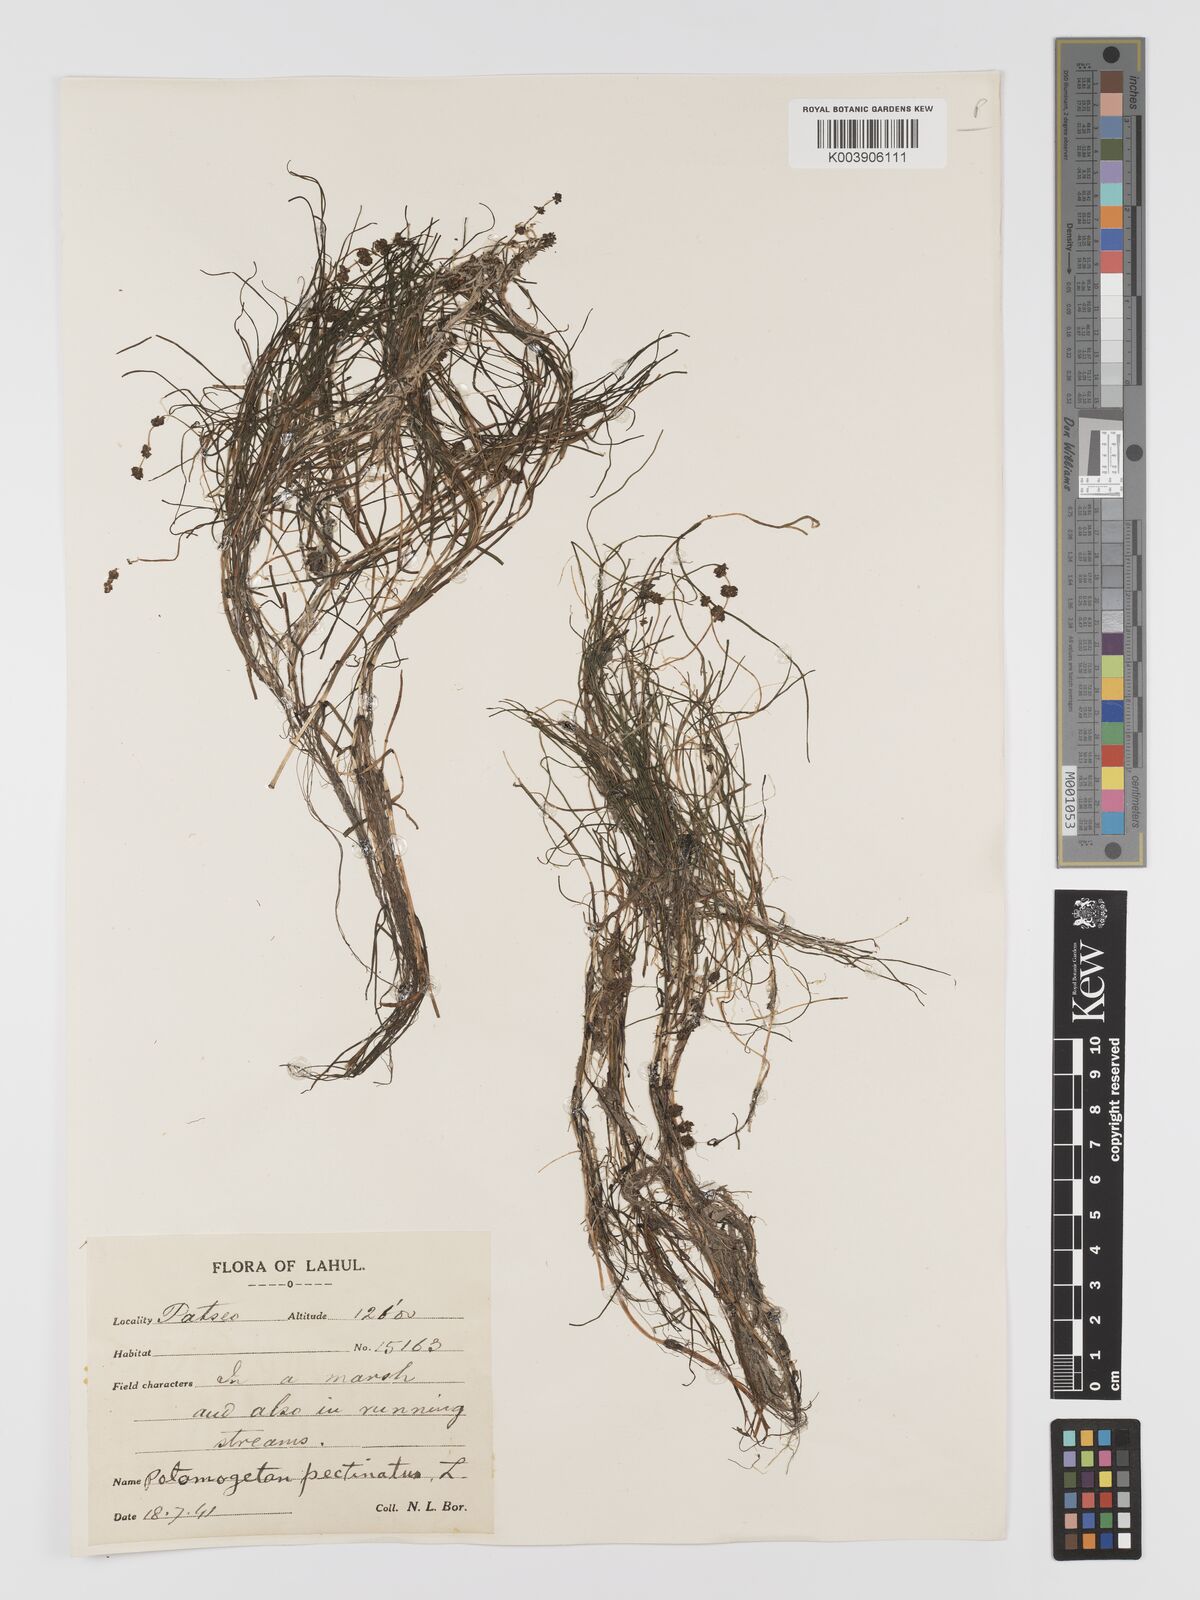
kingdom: Plantae
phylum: Tracheophyta
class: Liliopsida
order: Alismatales
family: Potamogetonaceae
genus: Stuckenia
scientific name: Stuckenia pectinata
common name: Sago pondweed
